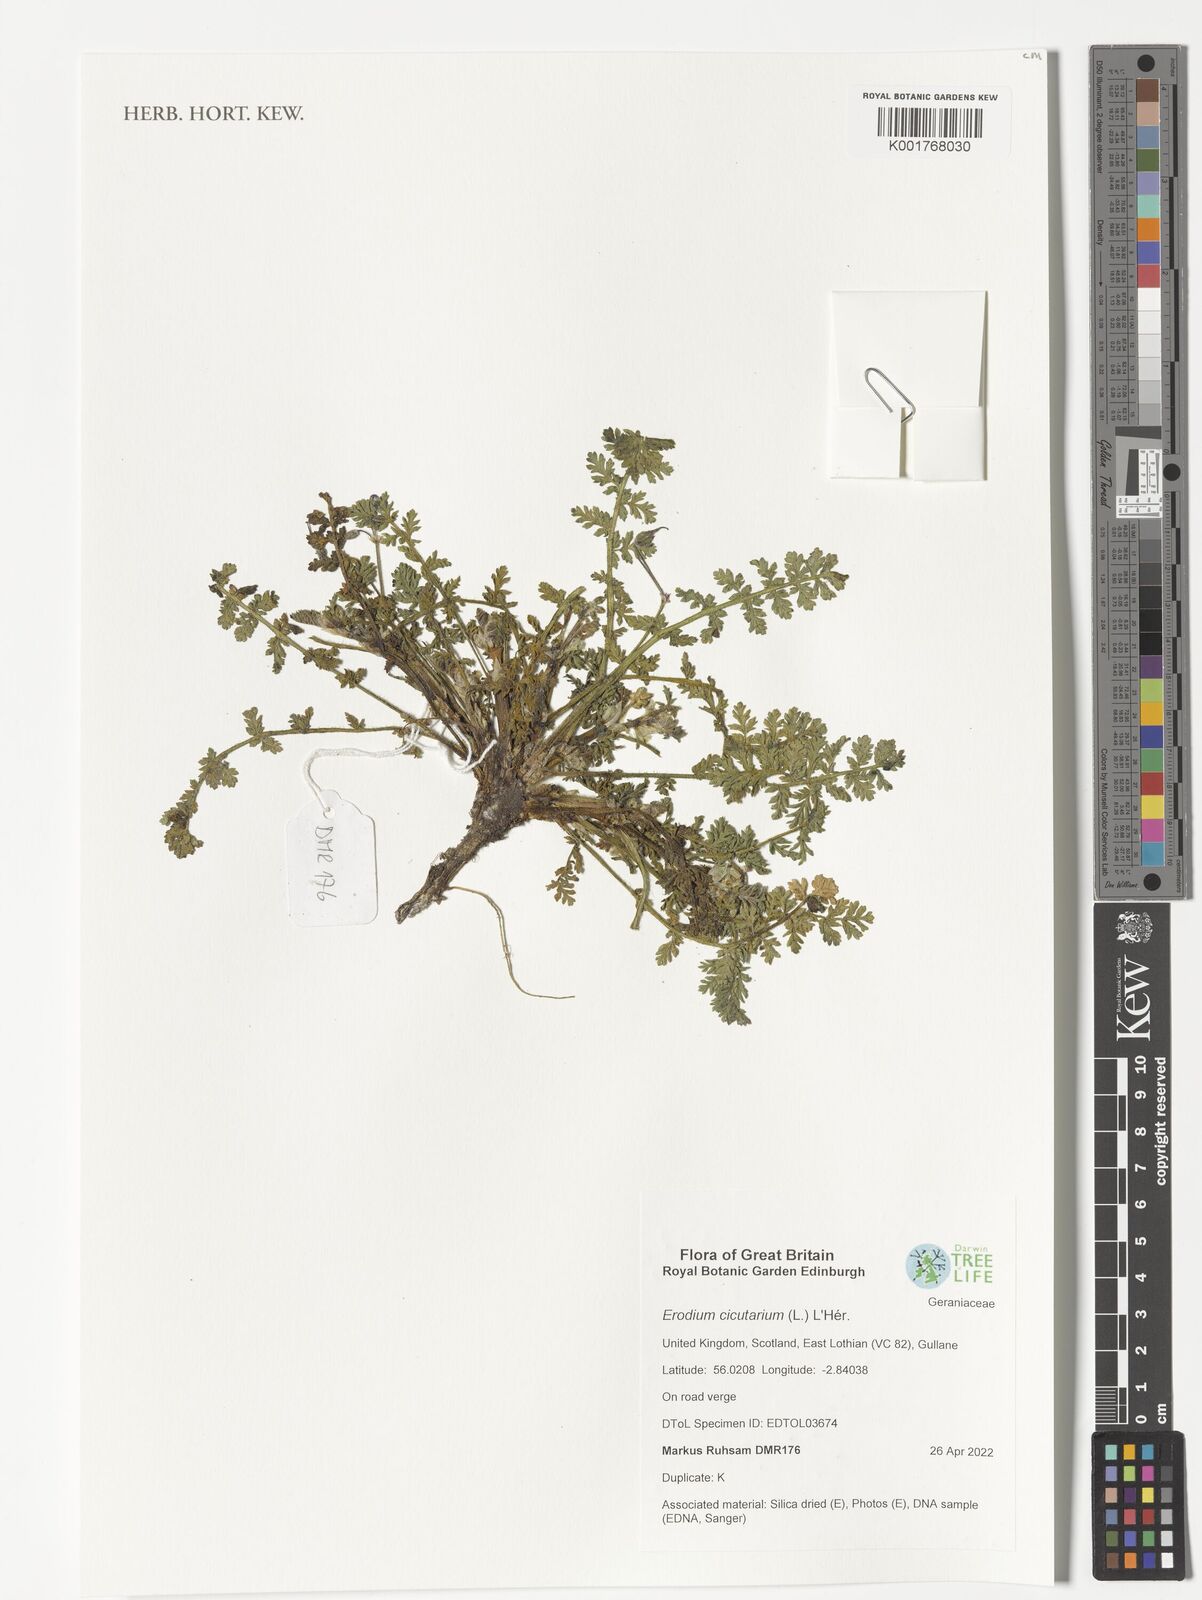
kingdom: Plantae
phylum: Tracheophyta
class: Magnoliopsida
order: Geraniales
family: Geraniaceae
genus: Erodium
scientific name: Erodium cicutarium
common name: Common stork's-bill
